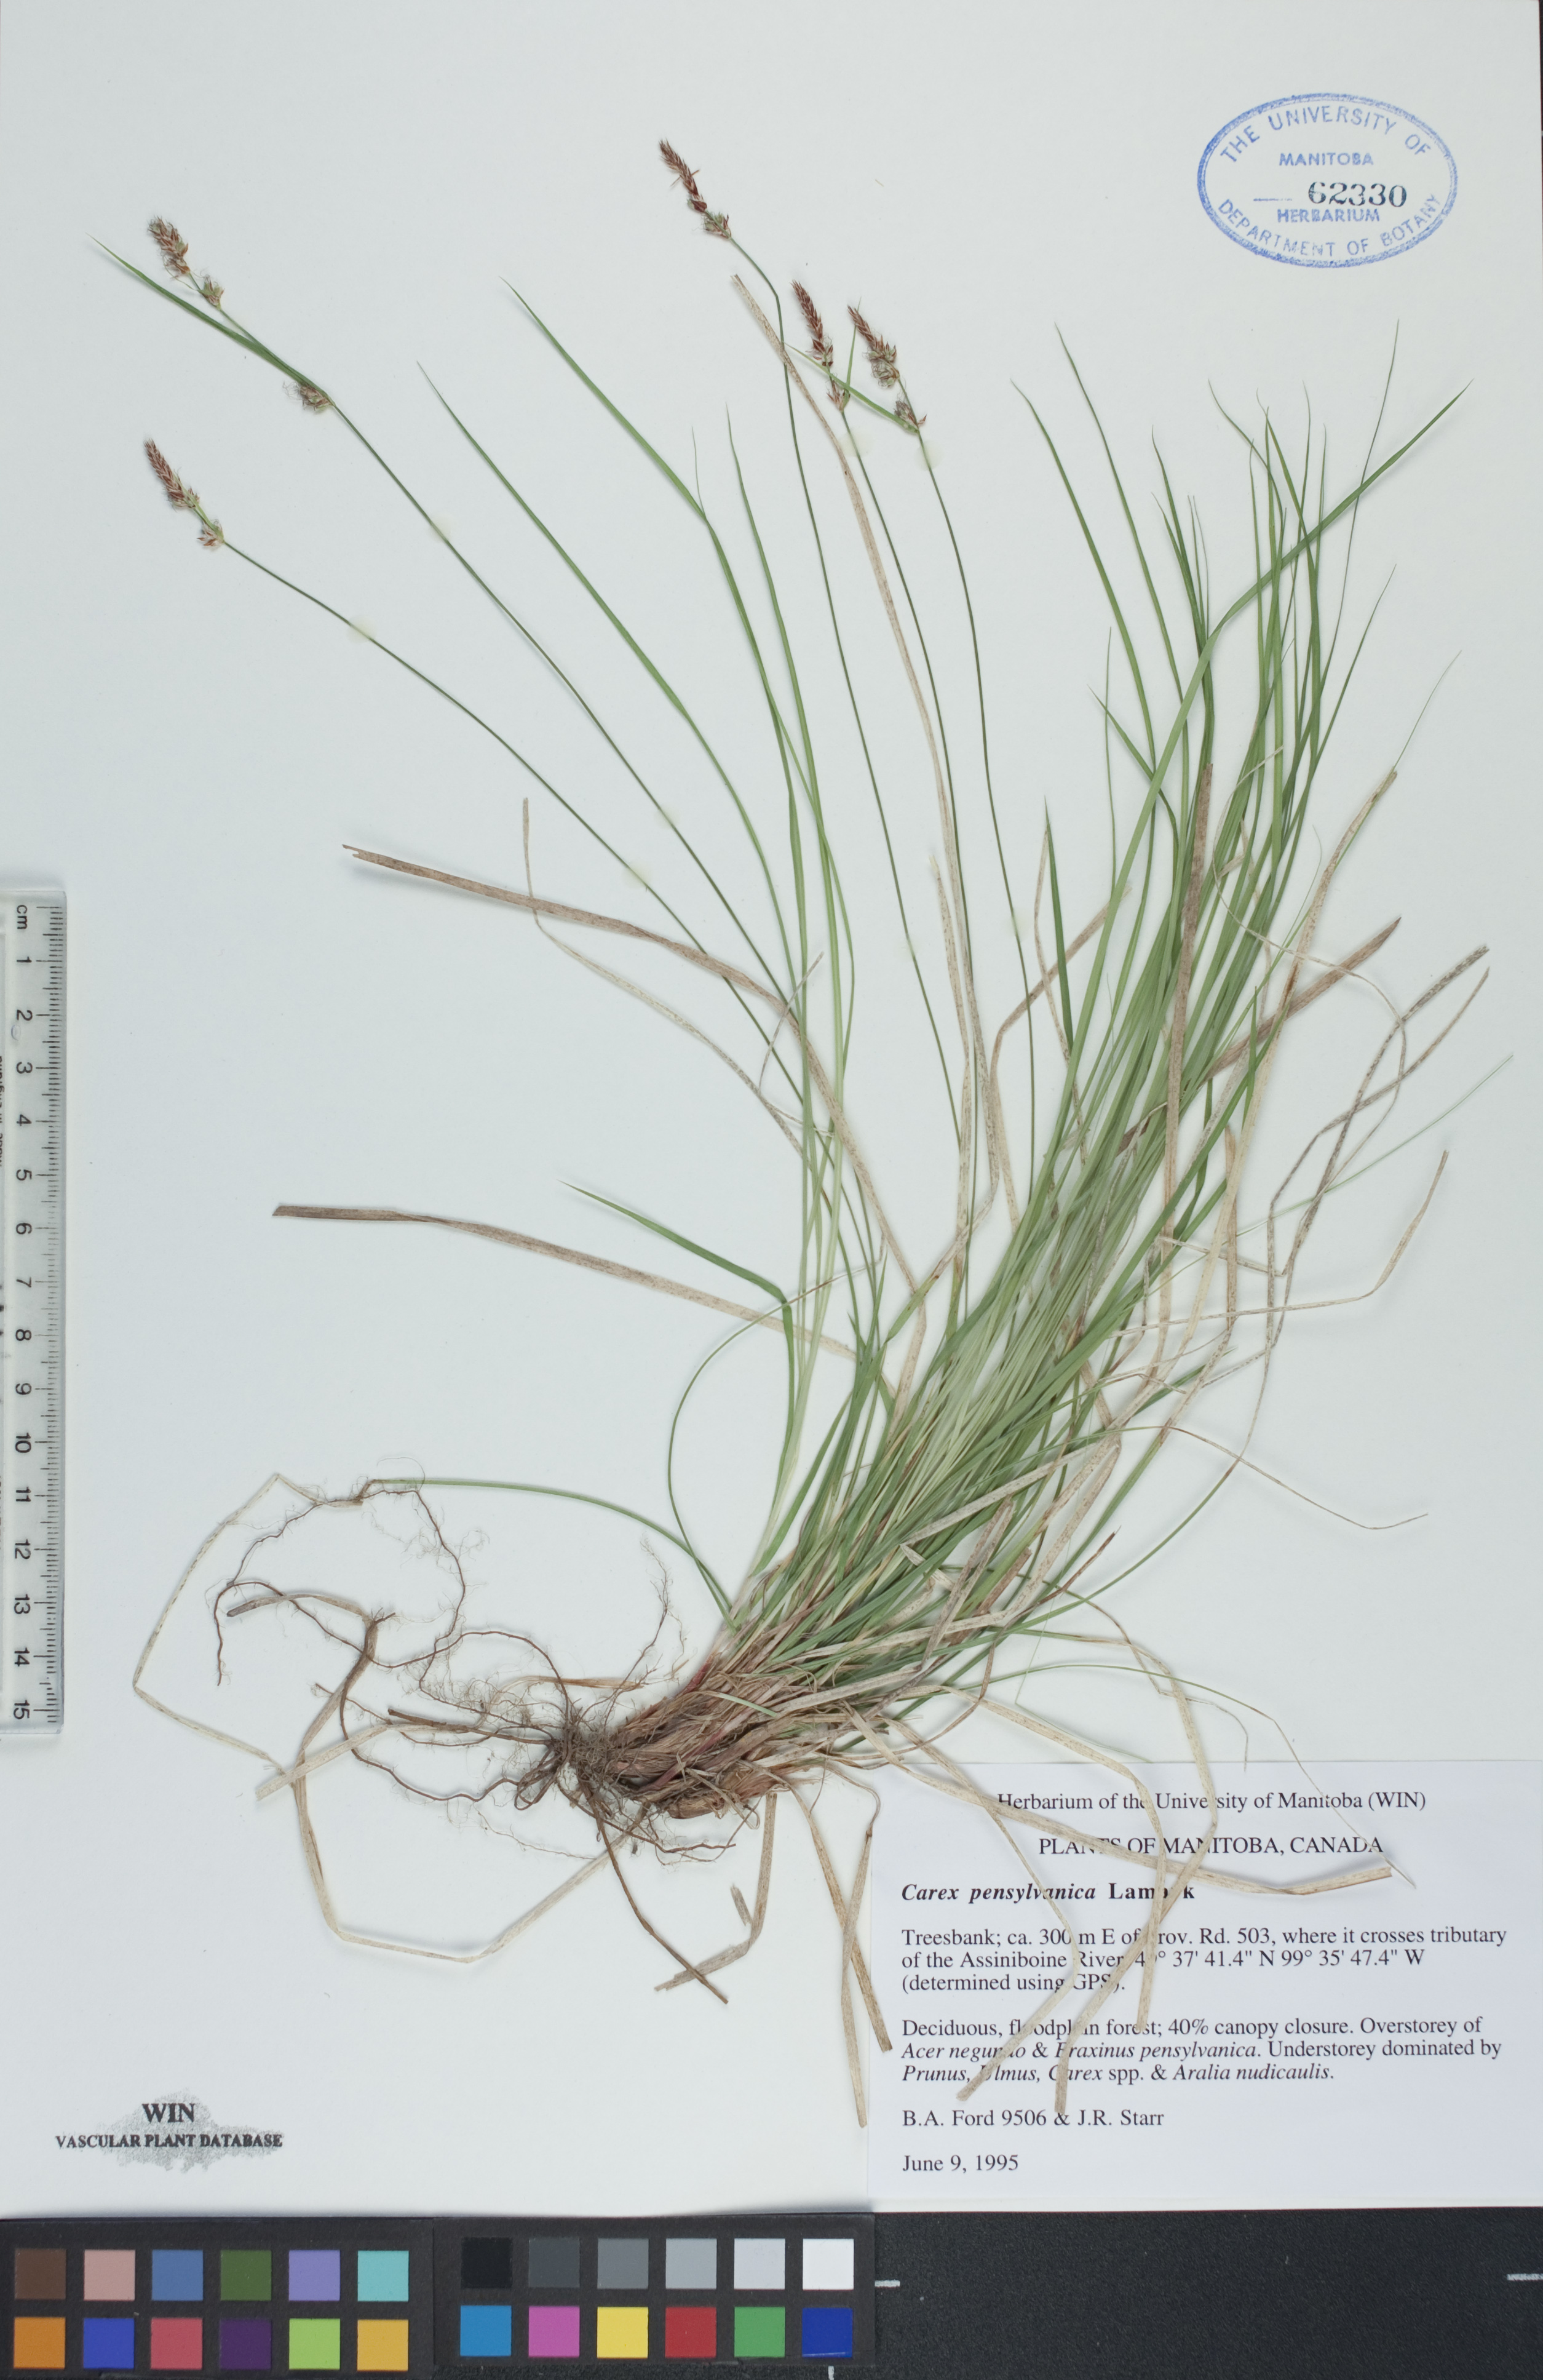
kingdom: Plantae
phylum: Tracheophyta
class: Liliopsida
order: Poales
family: Cyperaceae
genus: Carex
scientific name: Carex pensylvanica
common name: Common oak sedge
